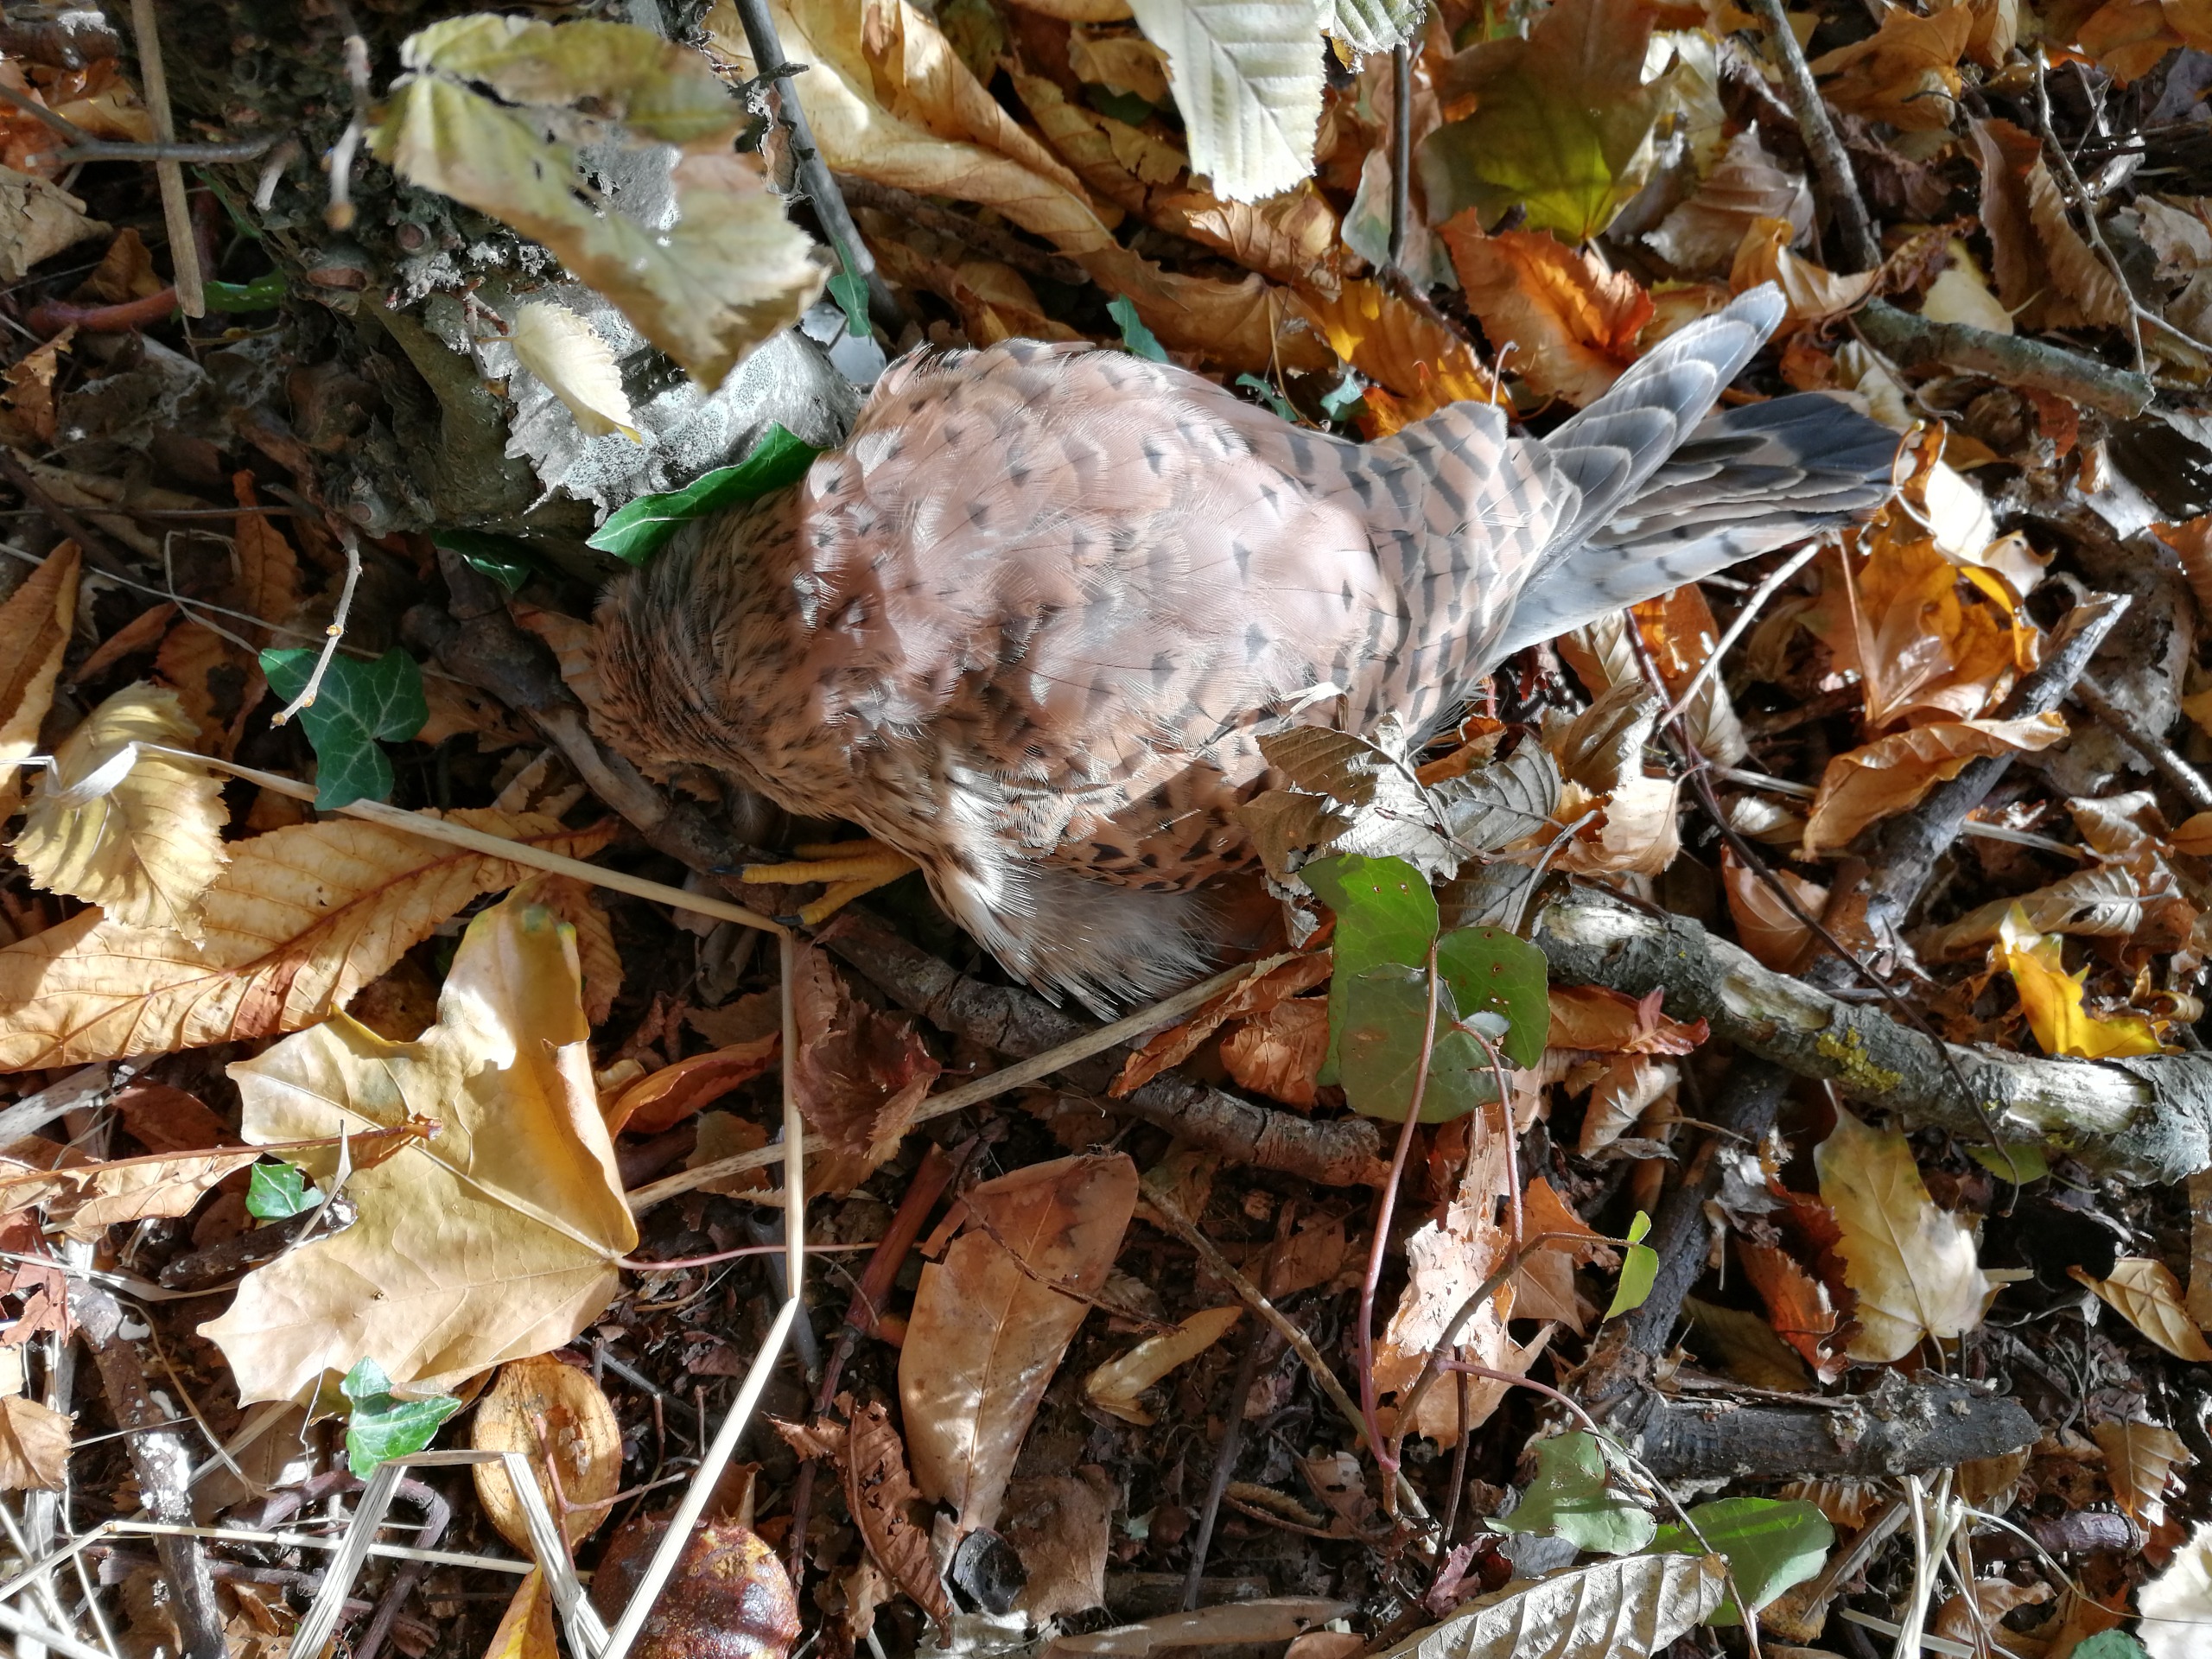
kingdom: Animalia
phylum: Chordata
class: Aves
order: Falconiformes
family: Falconidae
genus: Falco
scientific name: Falco tinnunculus
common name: Tårnfalk
